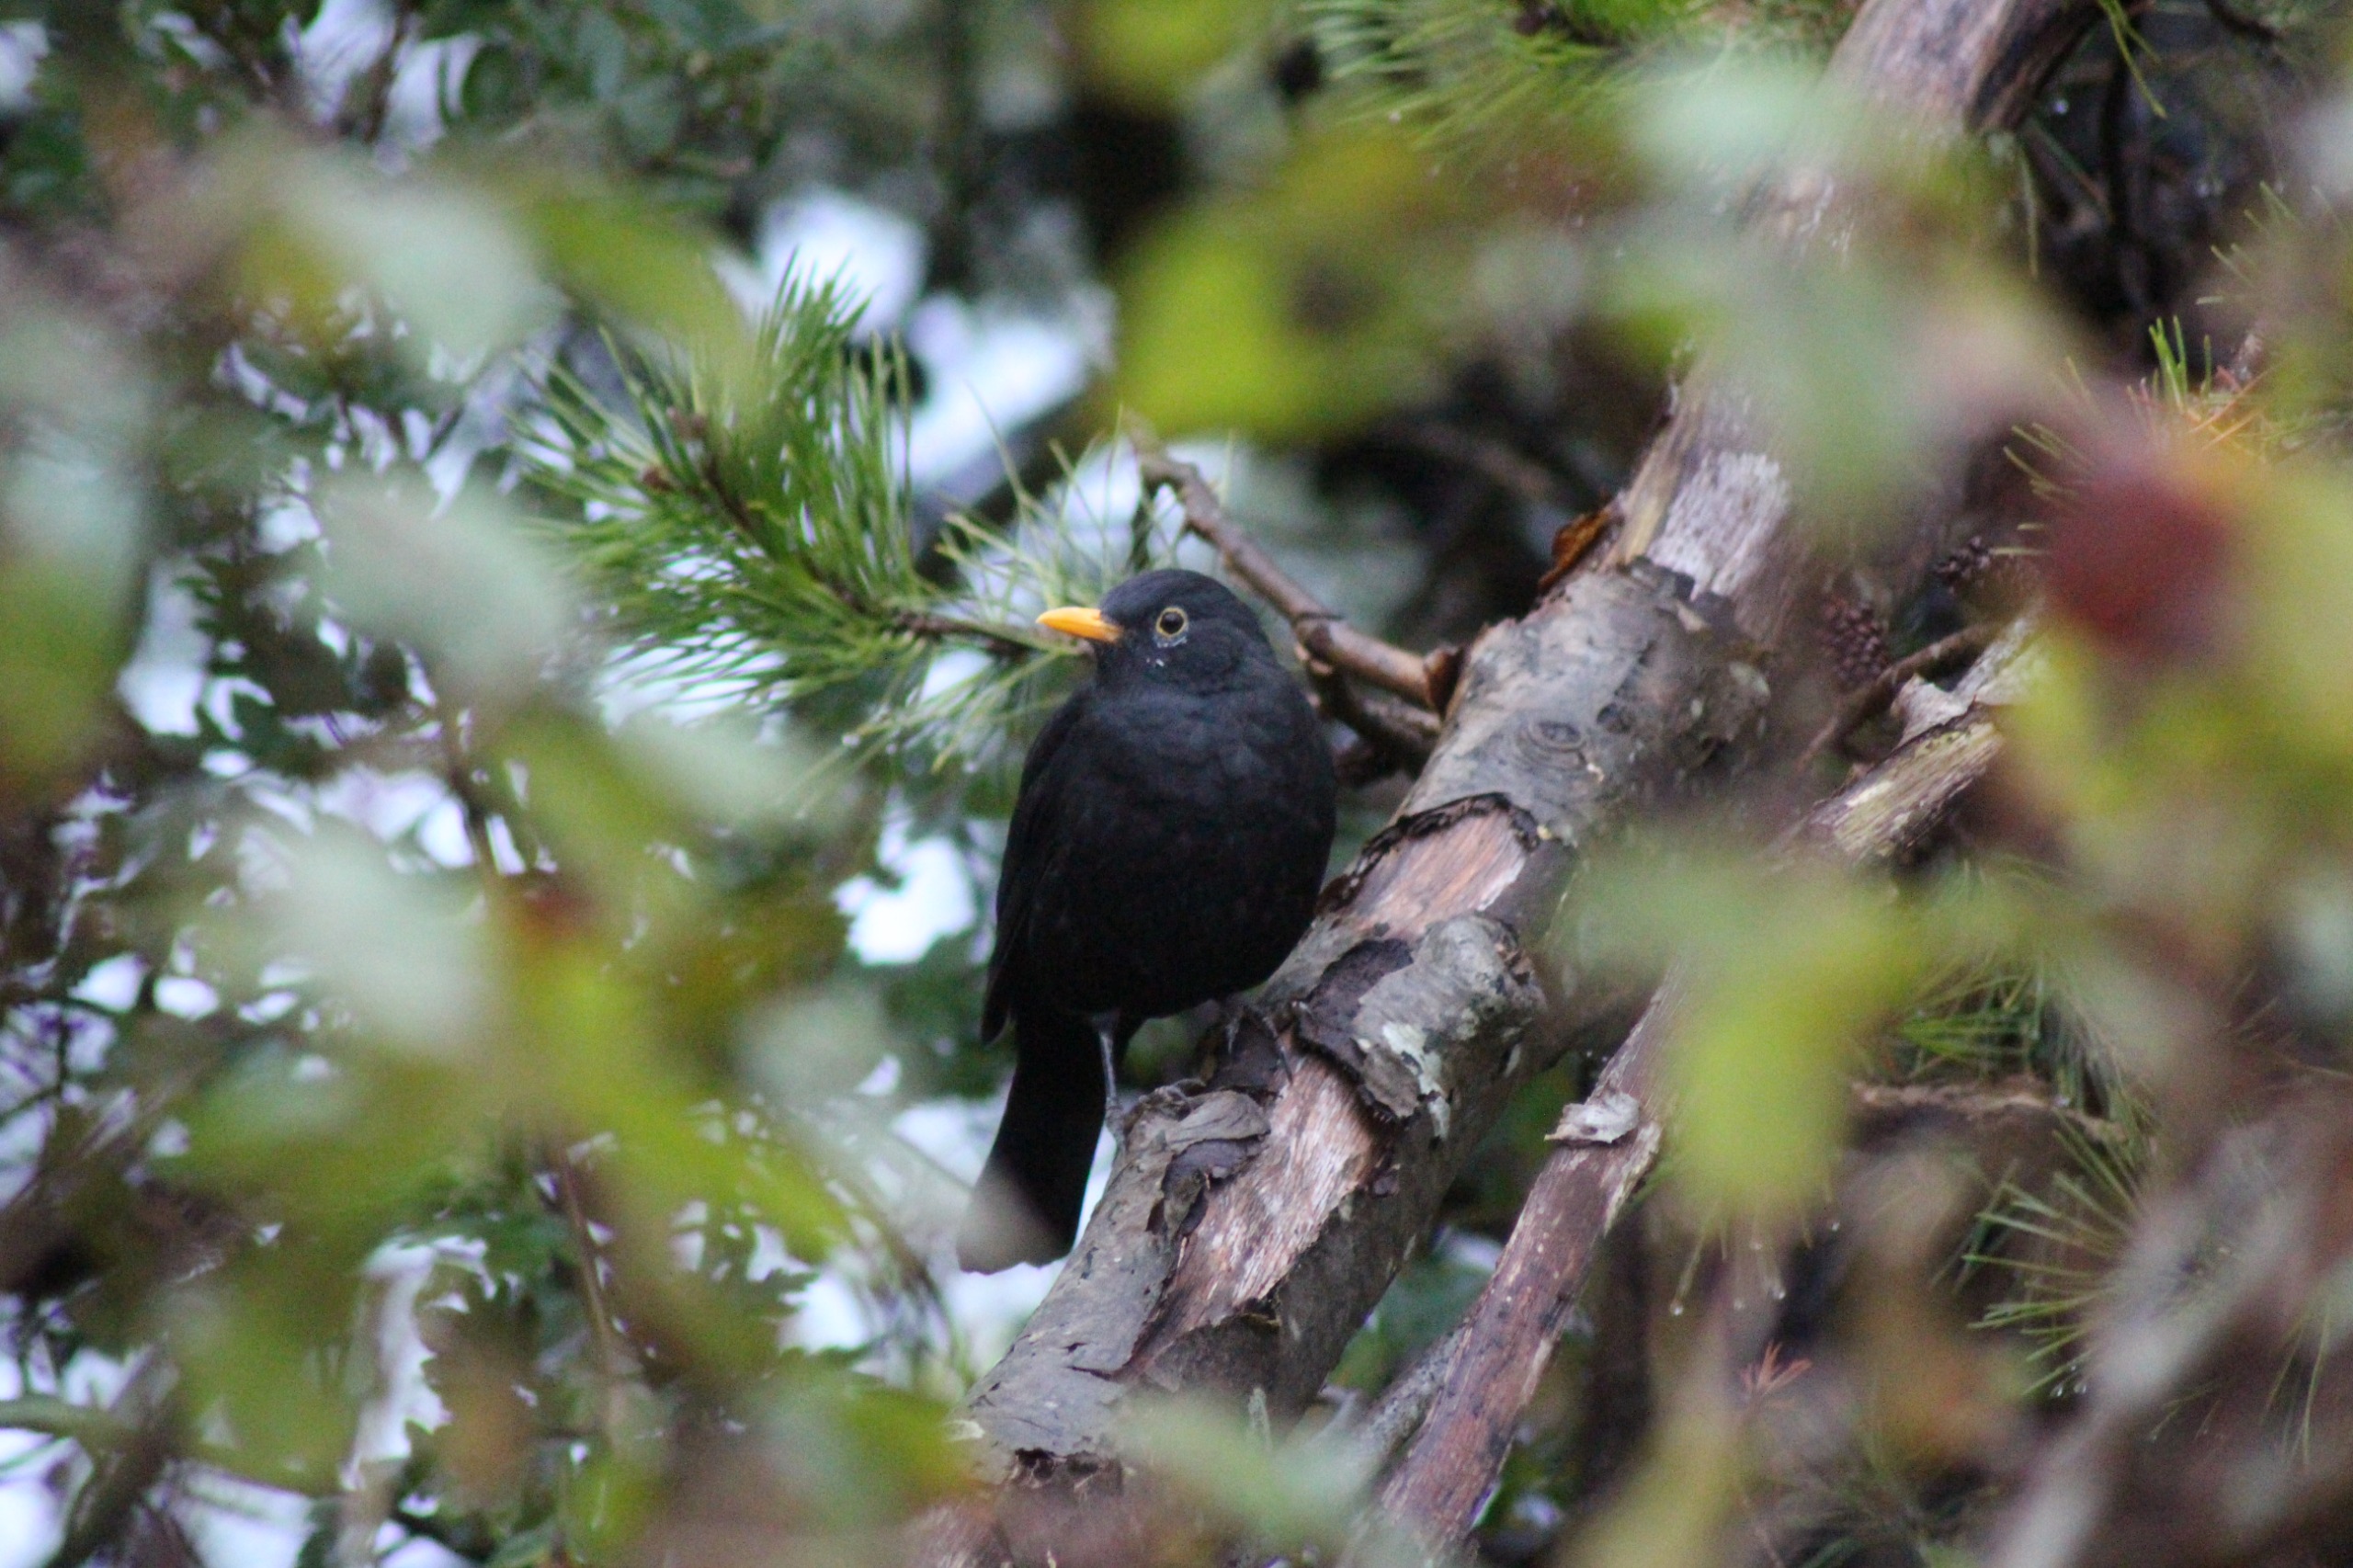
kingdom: Animalia
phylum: Chordata
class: Aves
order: Passeriformes
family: Turdidae
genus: Turdus
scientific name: Turdus merula
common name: Solsort
